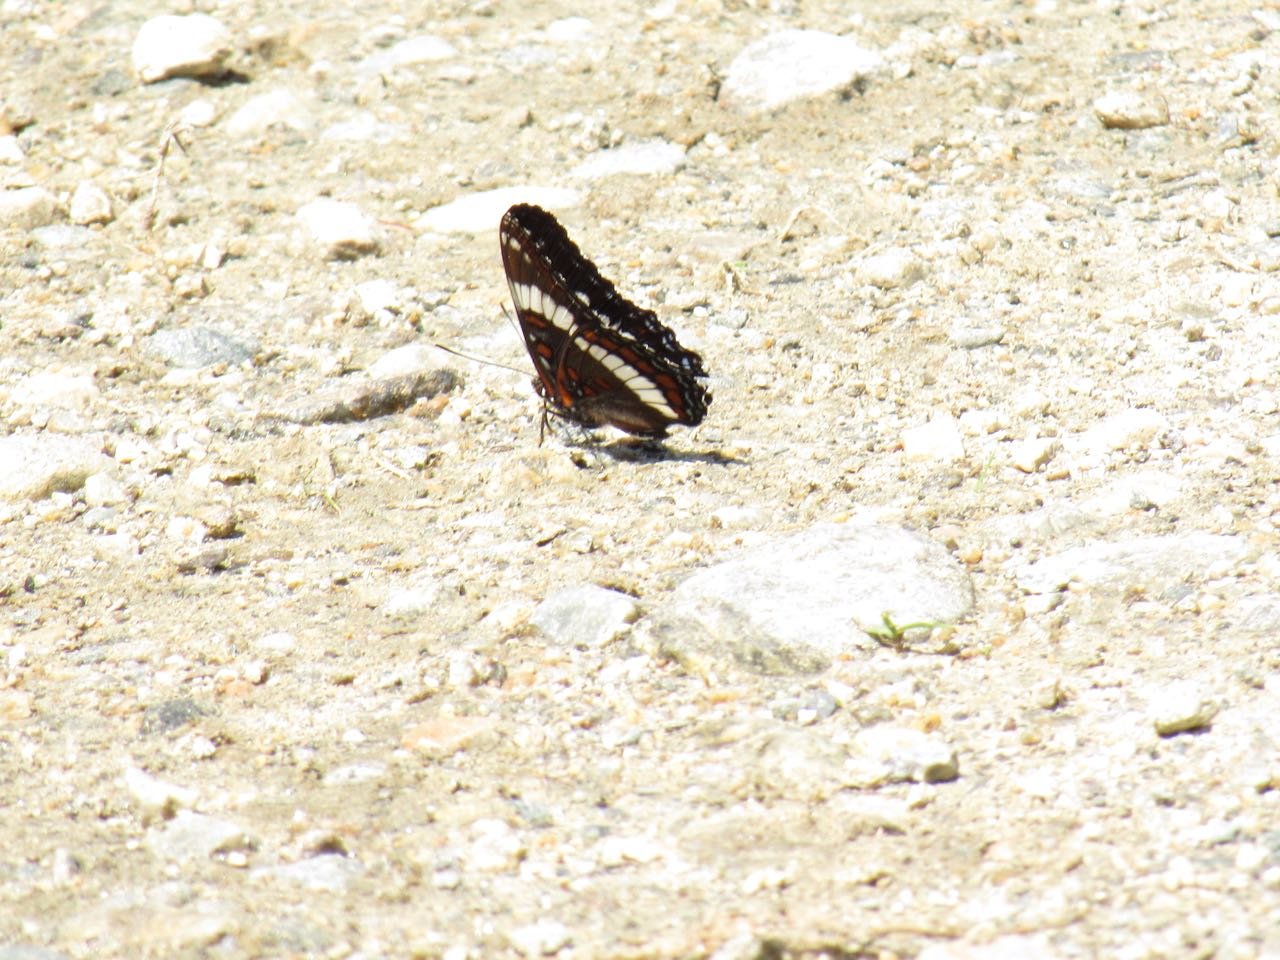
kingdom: Animalia
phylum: Arthropoda
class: Insecta
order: Lepidoptera
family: Nymphalidae
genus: Limenitis
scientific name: Limenitis arthemis
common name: Red-spotted Admiral
